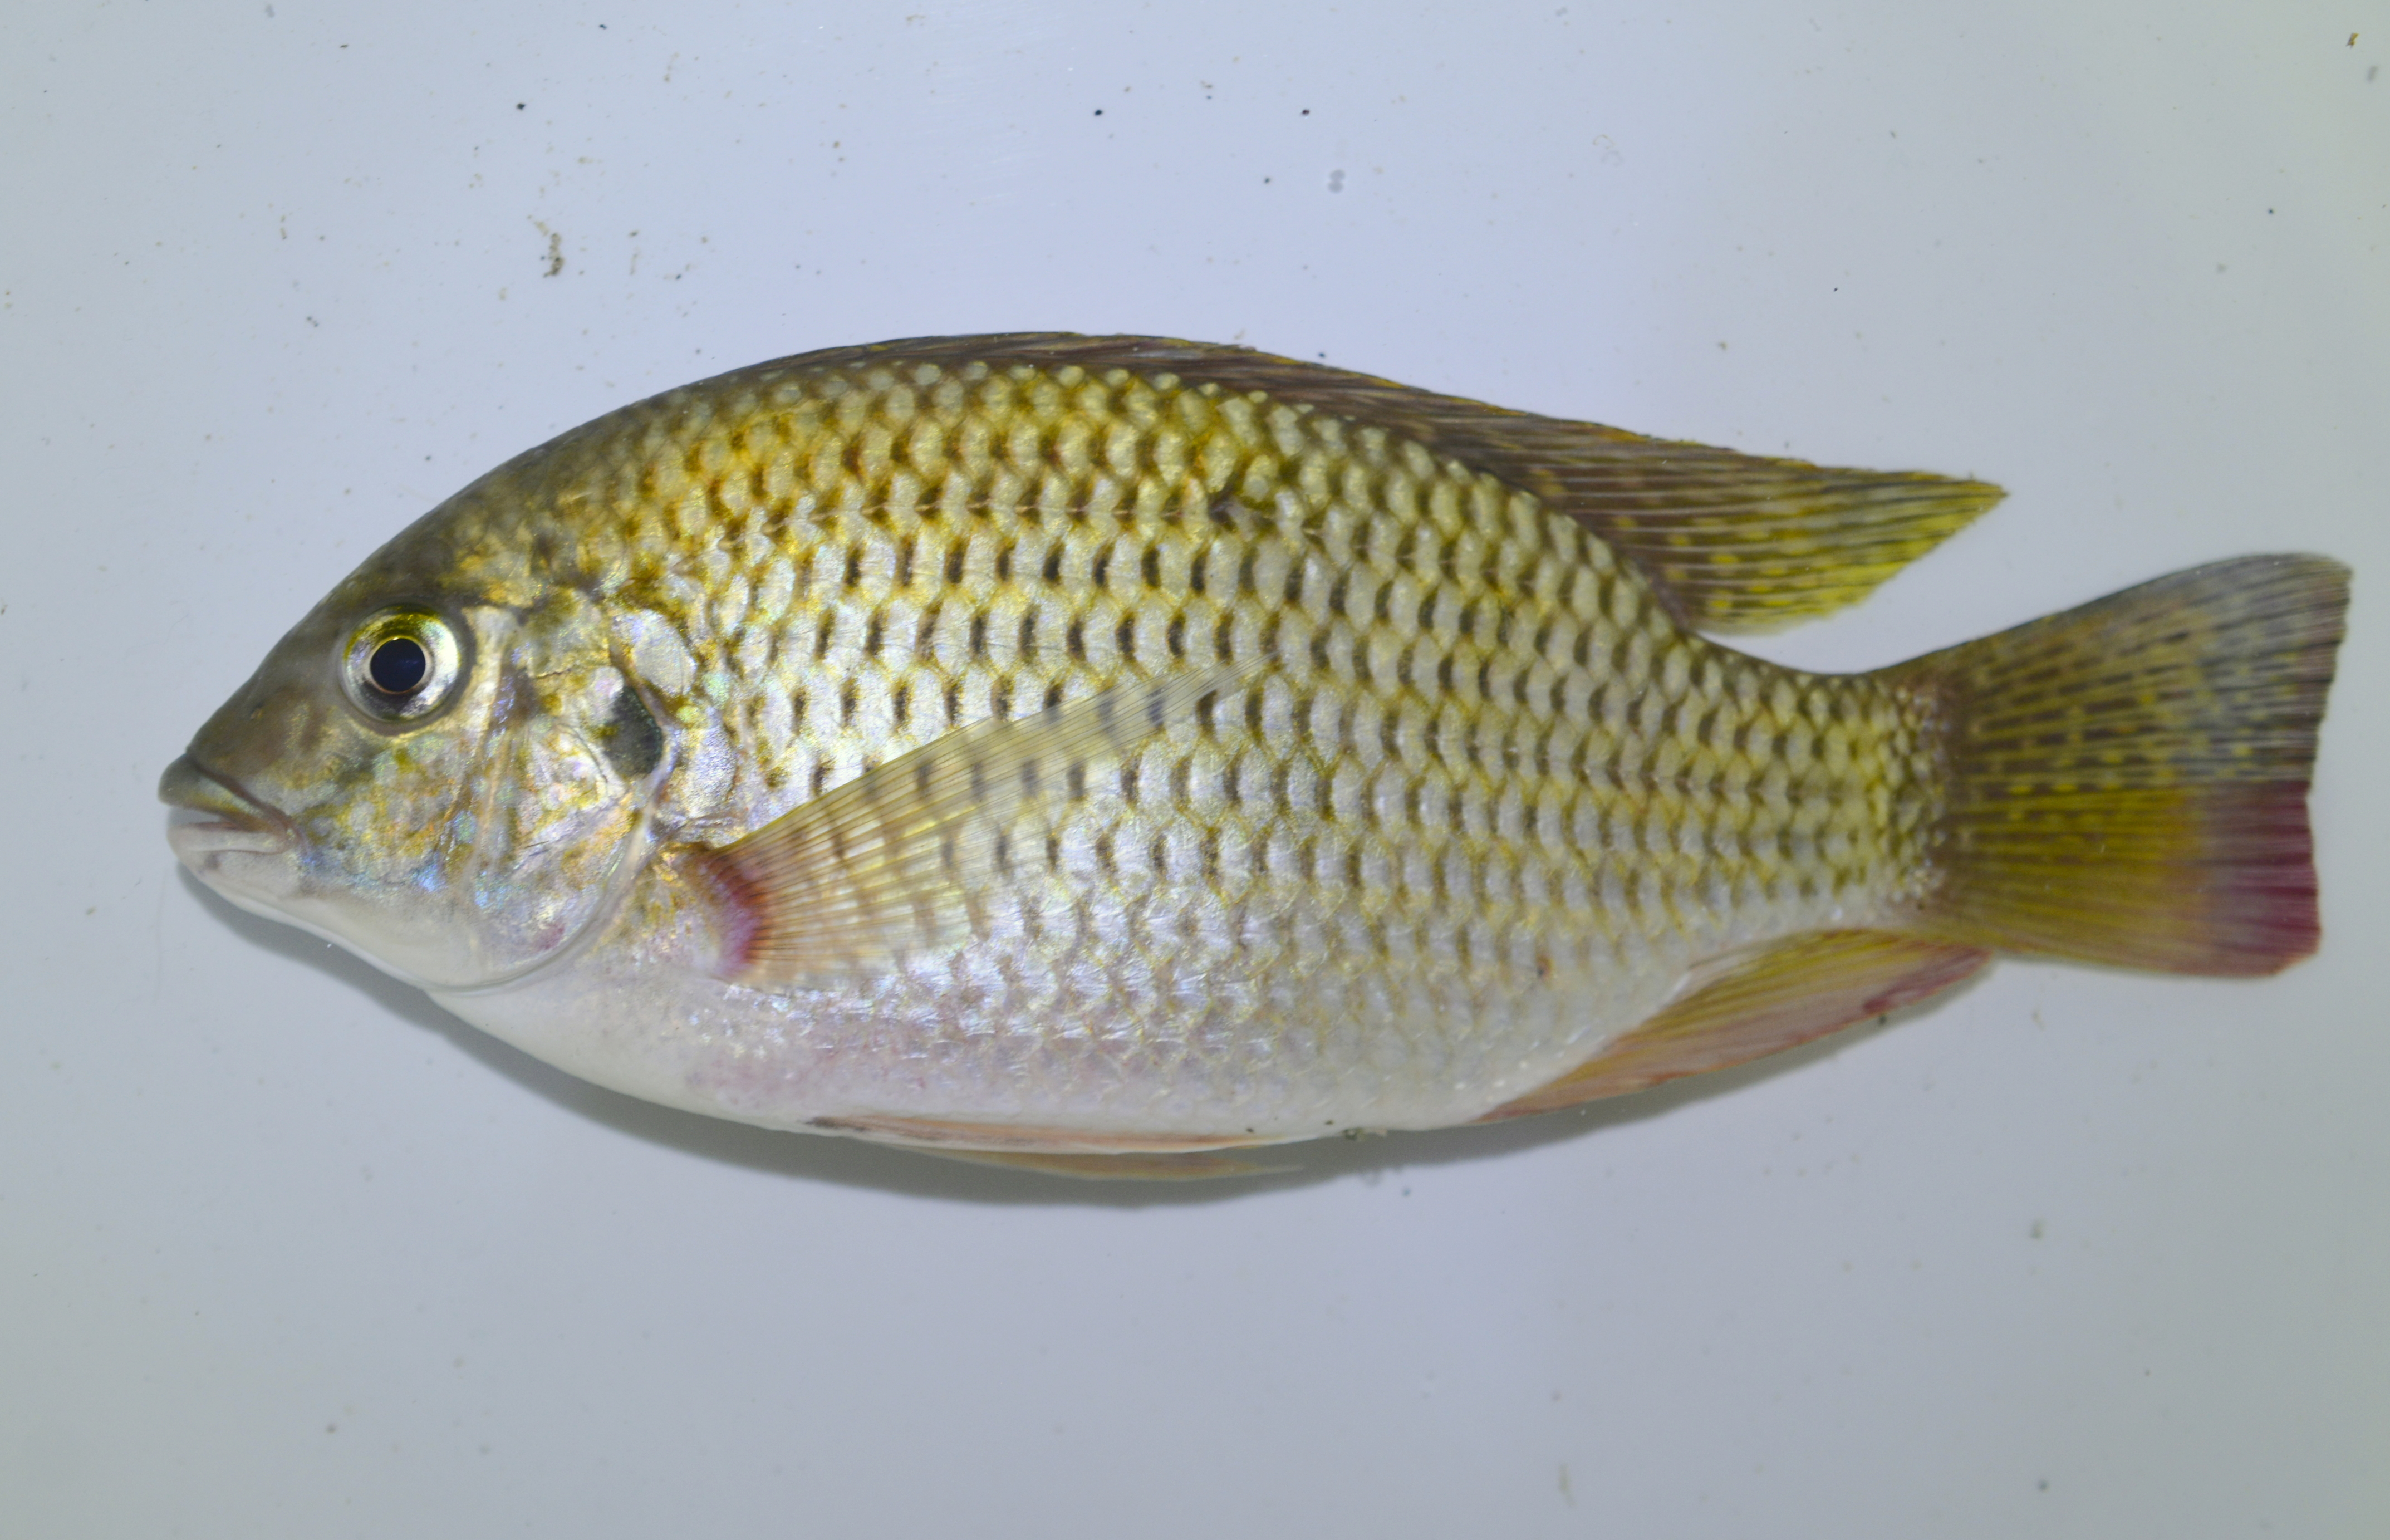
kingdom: Animalia
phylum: Chordata
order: Perciformes
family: Cichlidae
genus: Coptodon
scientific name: Coptodon rendalli
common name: Redbreast tilapia
